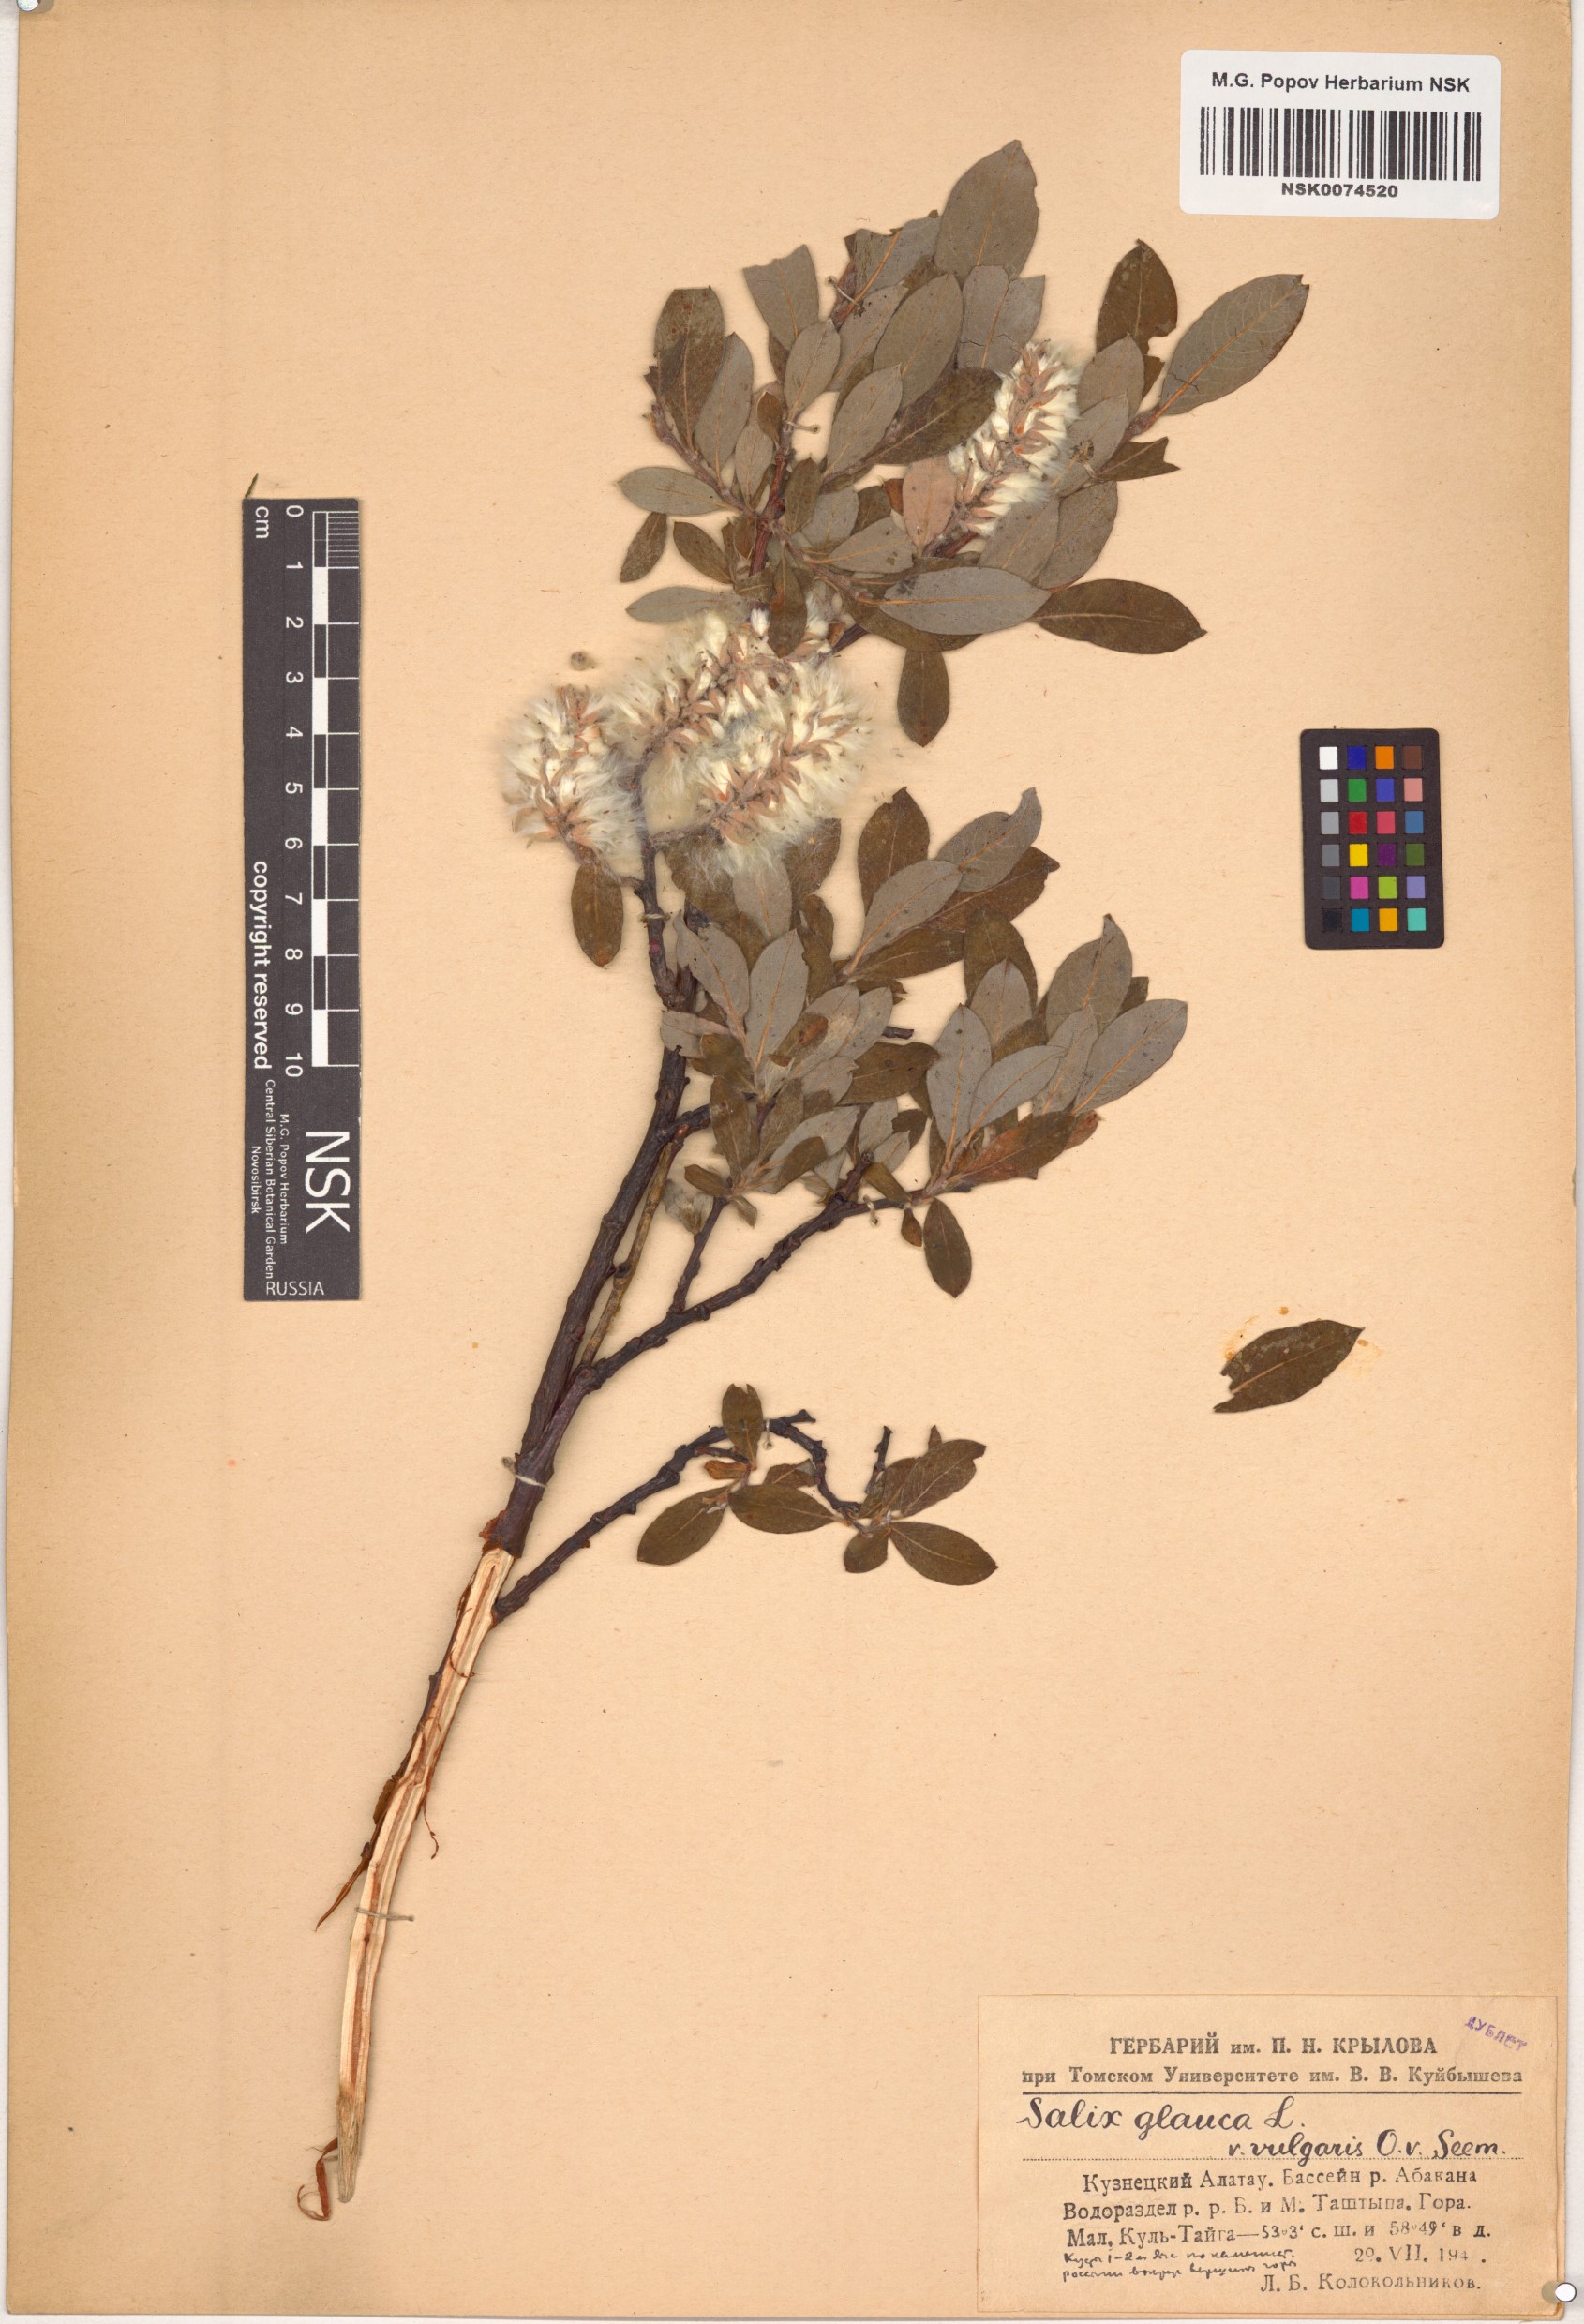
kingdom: Plantae
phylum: Tracheophyta
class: Magnoliopsida
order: Malpighiales
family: Salicaceae
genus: Salix
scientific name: Salix glauca
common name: Glaucous willow
